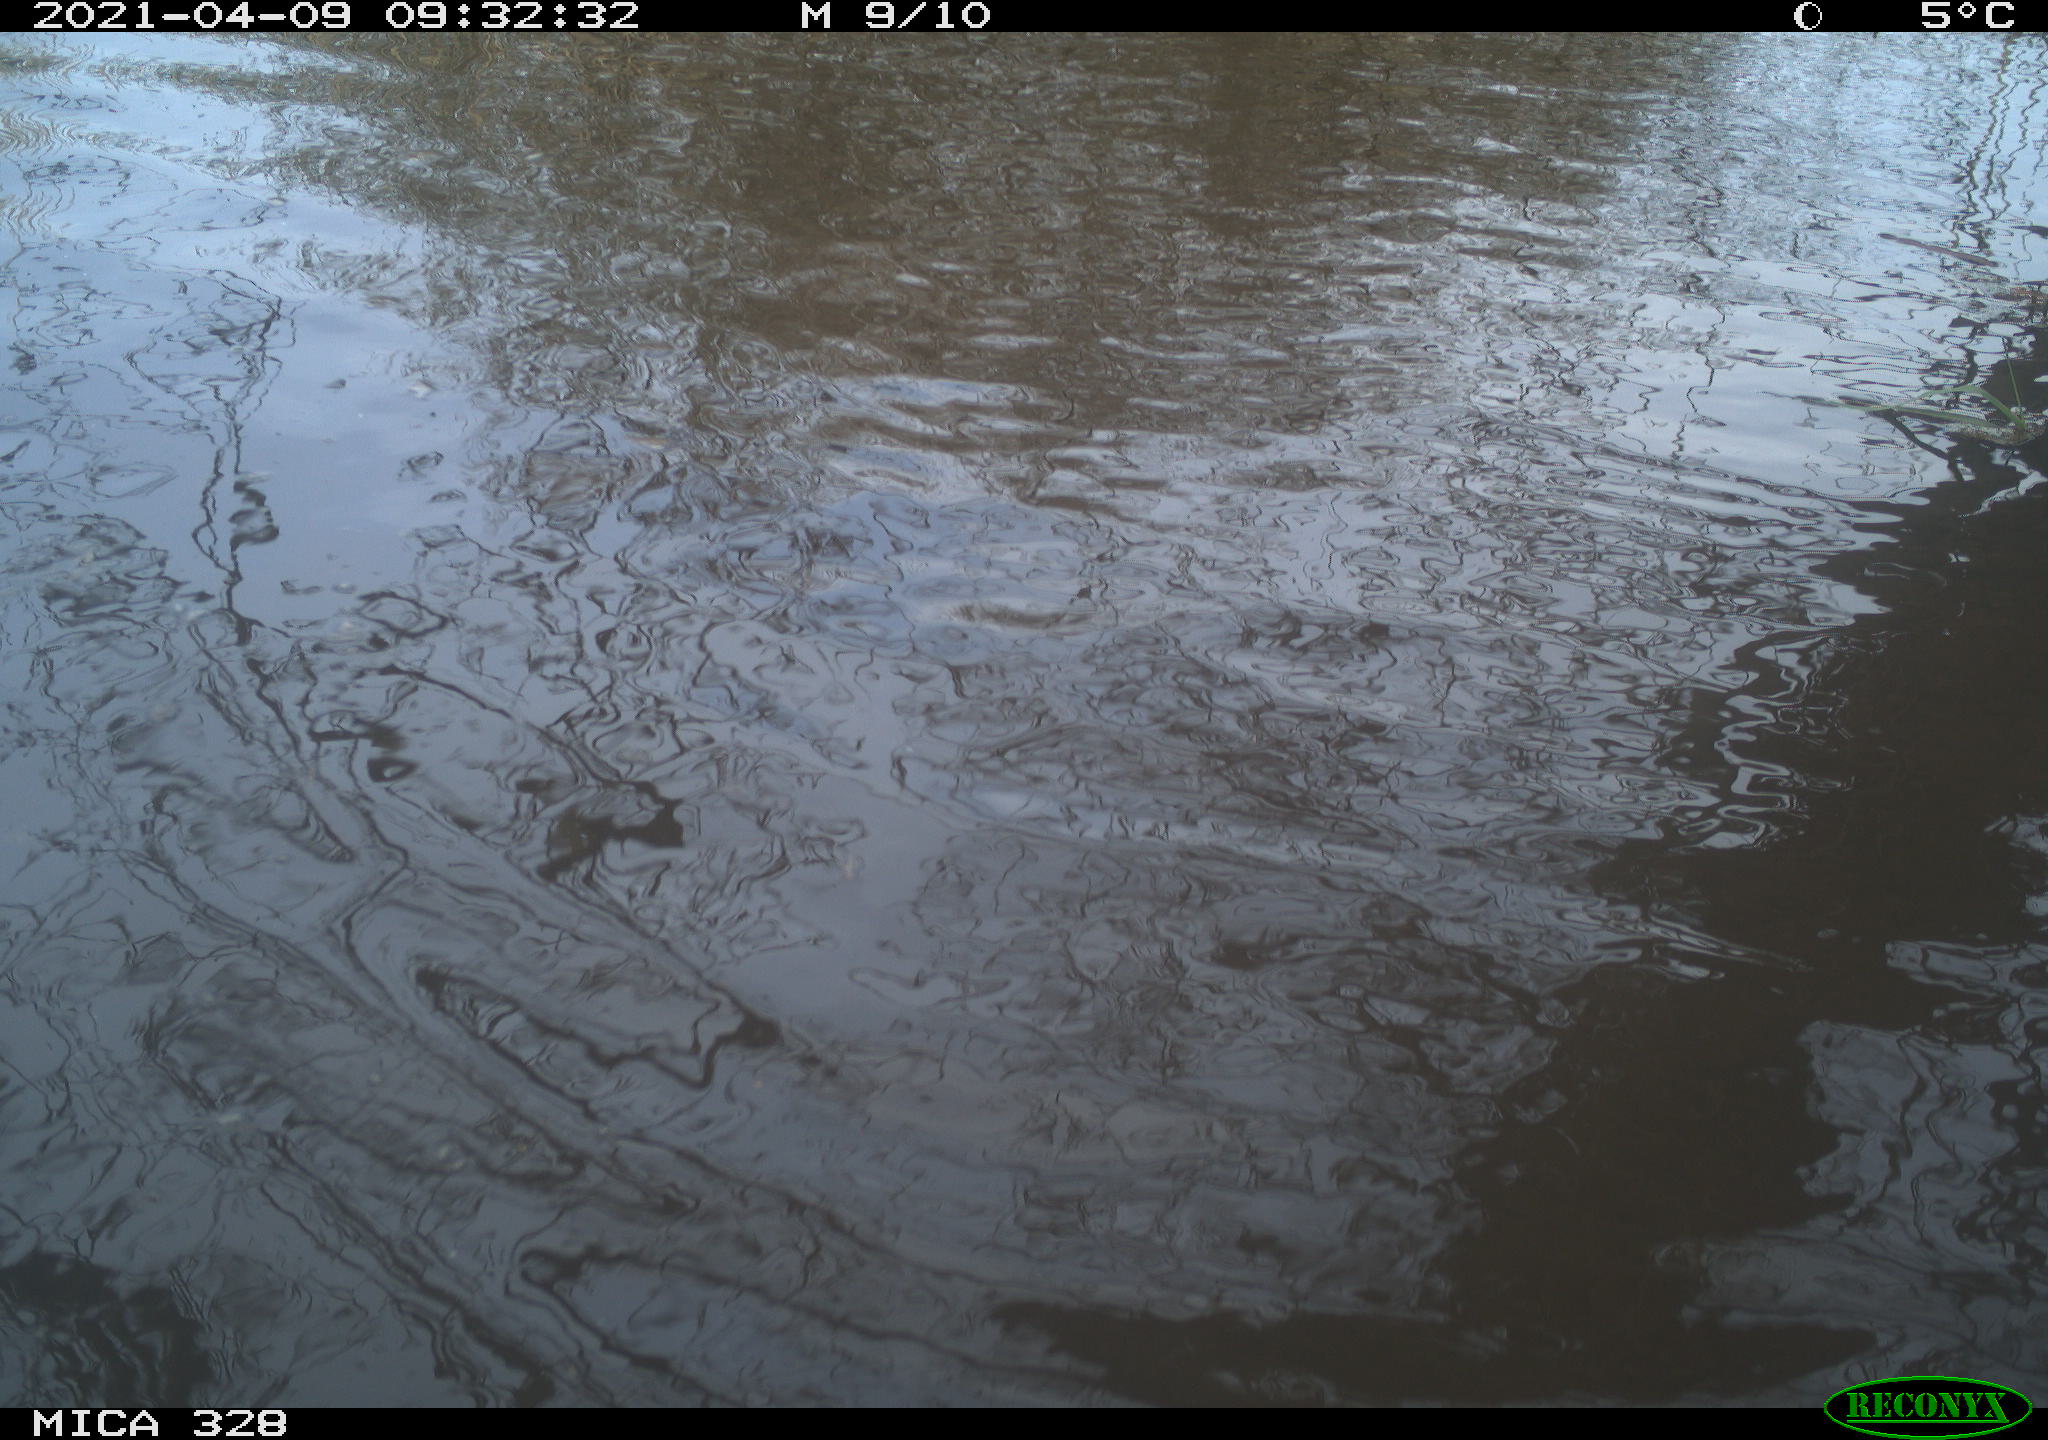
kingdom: Animalia
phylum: Chordata
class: Mammalia
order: Rodentia
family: Cricetidae
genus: Ondatra
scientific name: Ondatra zibethicus
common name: Muskrat
